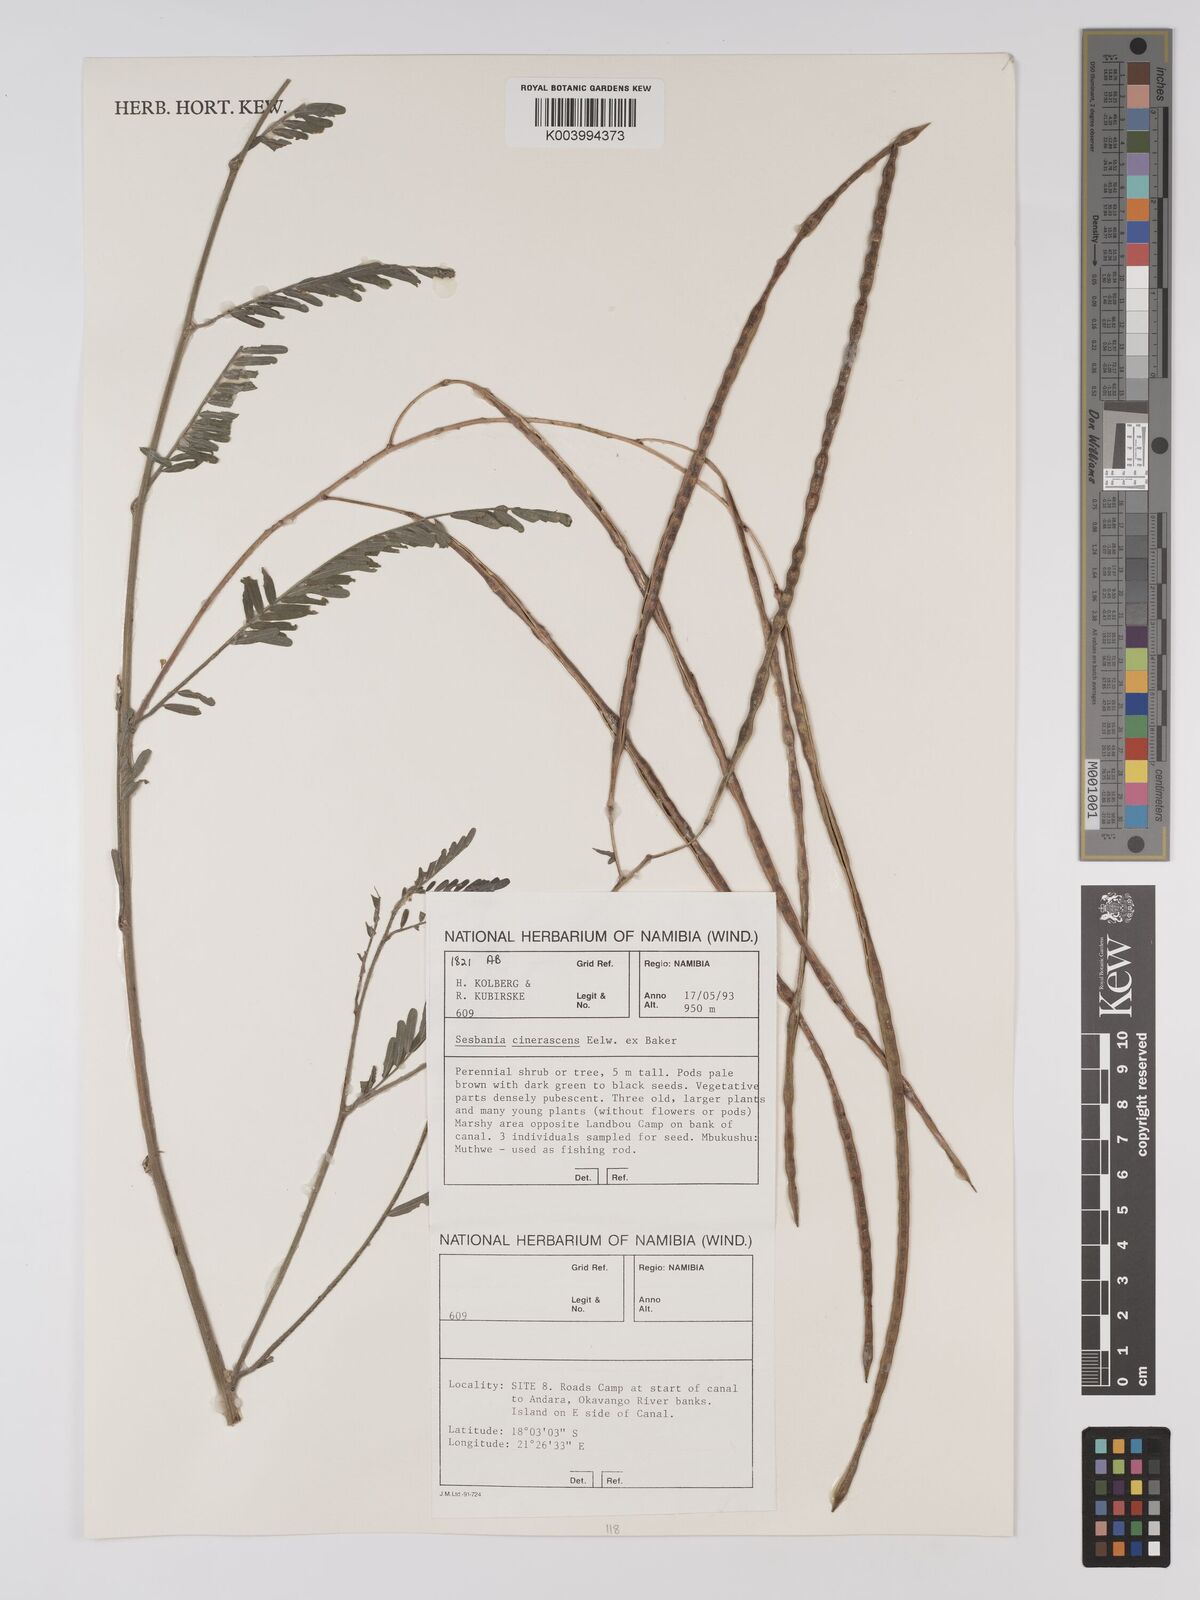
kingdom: Plantae
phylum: Tracheophyta
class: Magnoliopsida
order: Fabales
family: Fabaceae
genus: Sesbania
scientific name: Sesbania cinerascens
